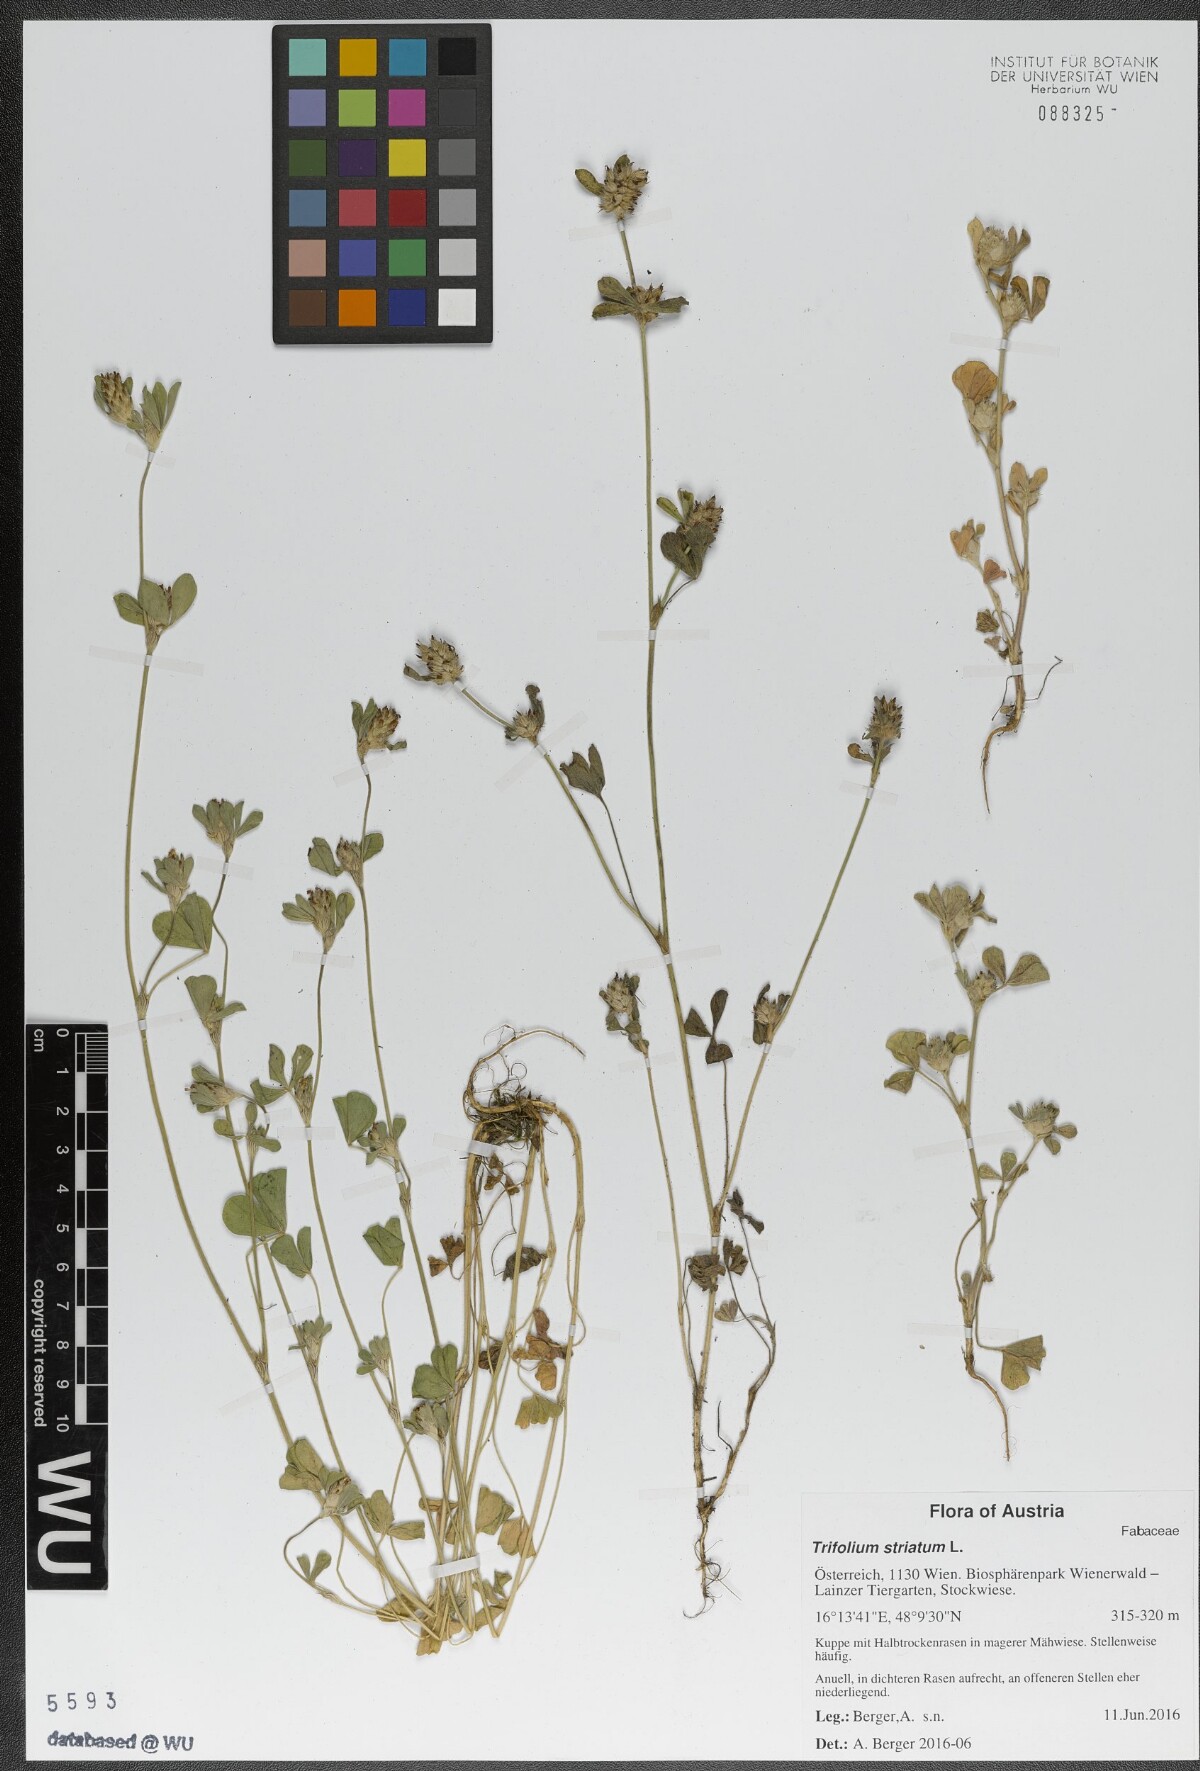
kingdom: Plantae
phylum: Tracheophyta
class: Magnoliopsida
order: Fabales
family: Fabaceae
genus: Trifolium
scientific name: Trifolium striatum
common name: Knotted clover
